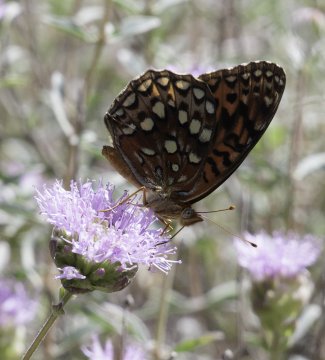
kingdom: Animalia
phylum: Arthropoda
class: Insecta
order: Lepidoptera
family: Nymphalidae
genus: Speyeria
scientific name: Speyeria zerene
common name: Zerene Fritillary
